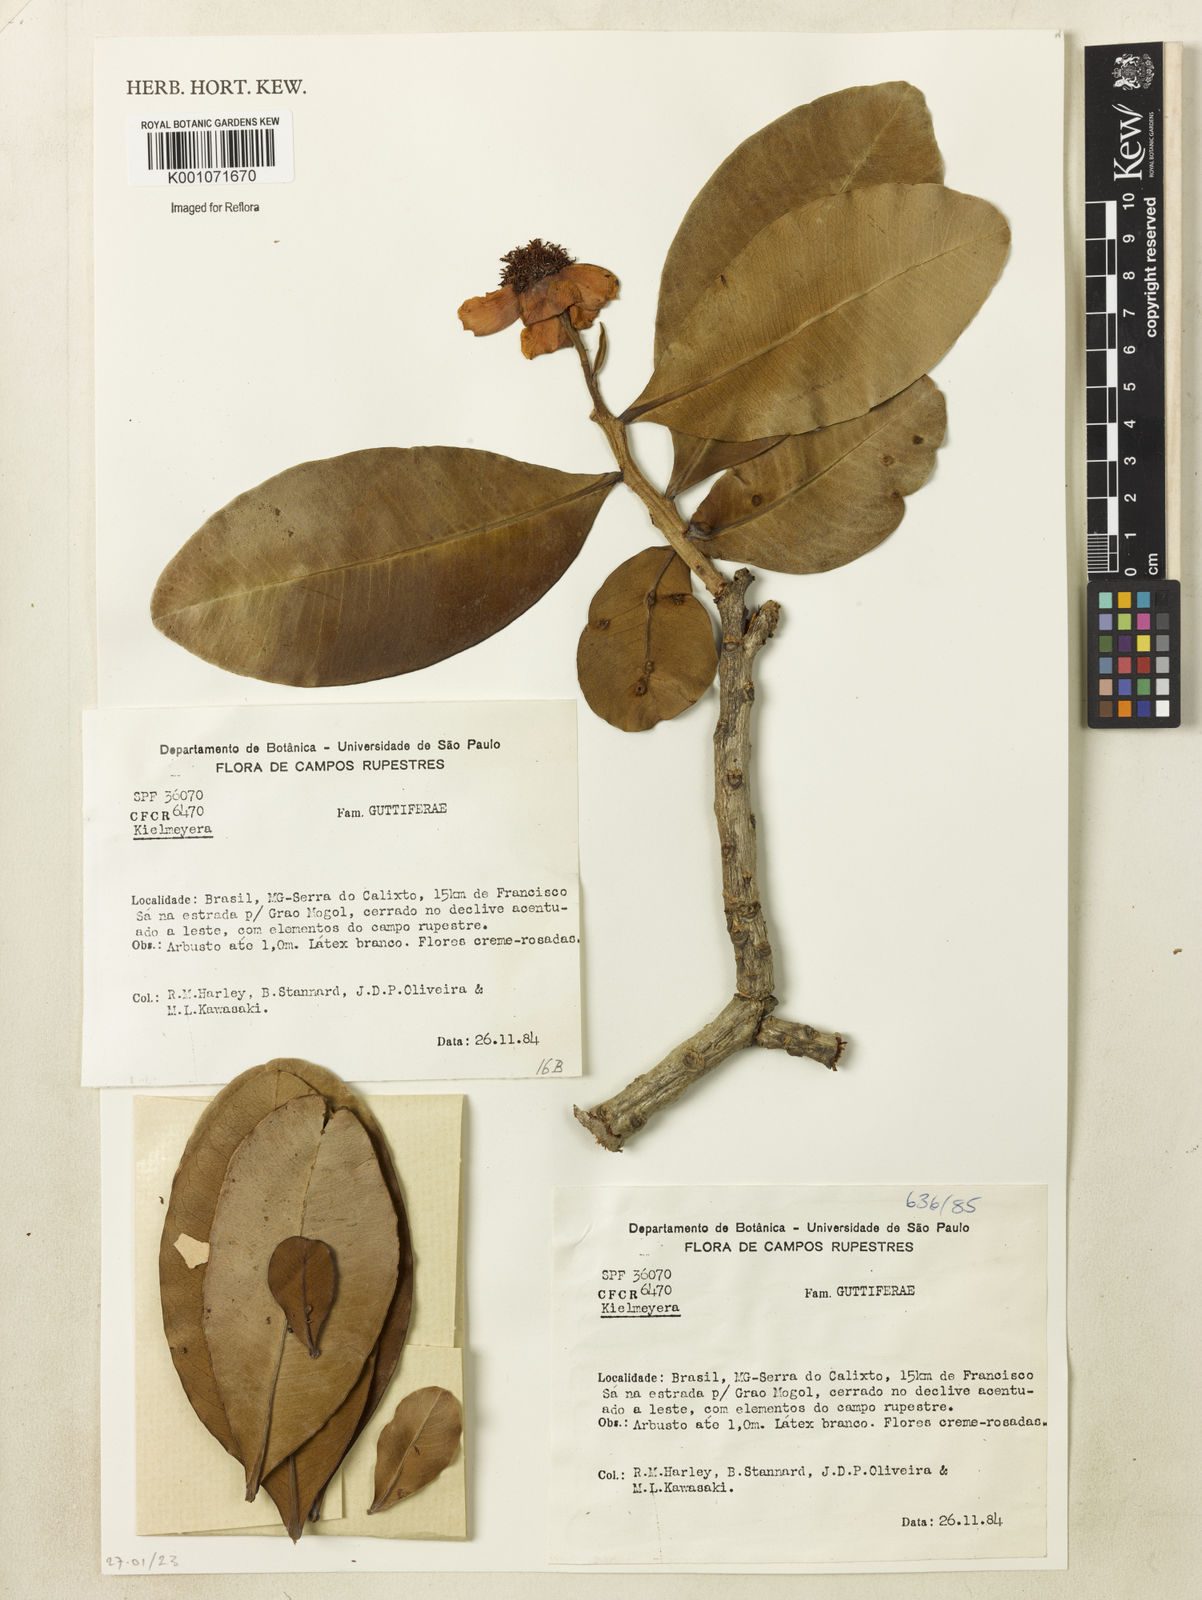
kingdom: Plantae
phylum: Tracheophyta
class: Magnoliopsida
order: Malpighiales
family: Calophyllaceae
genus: Kielmeyera
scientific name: Kielmeyera
